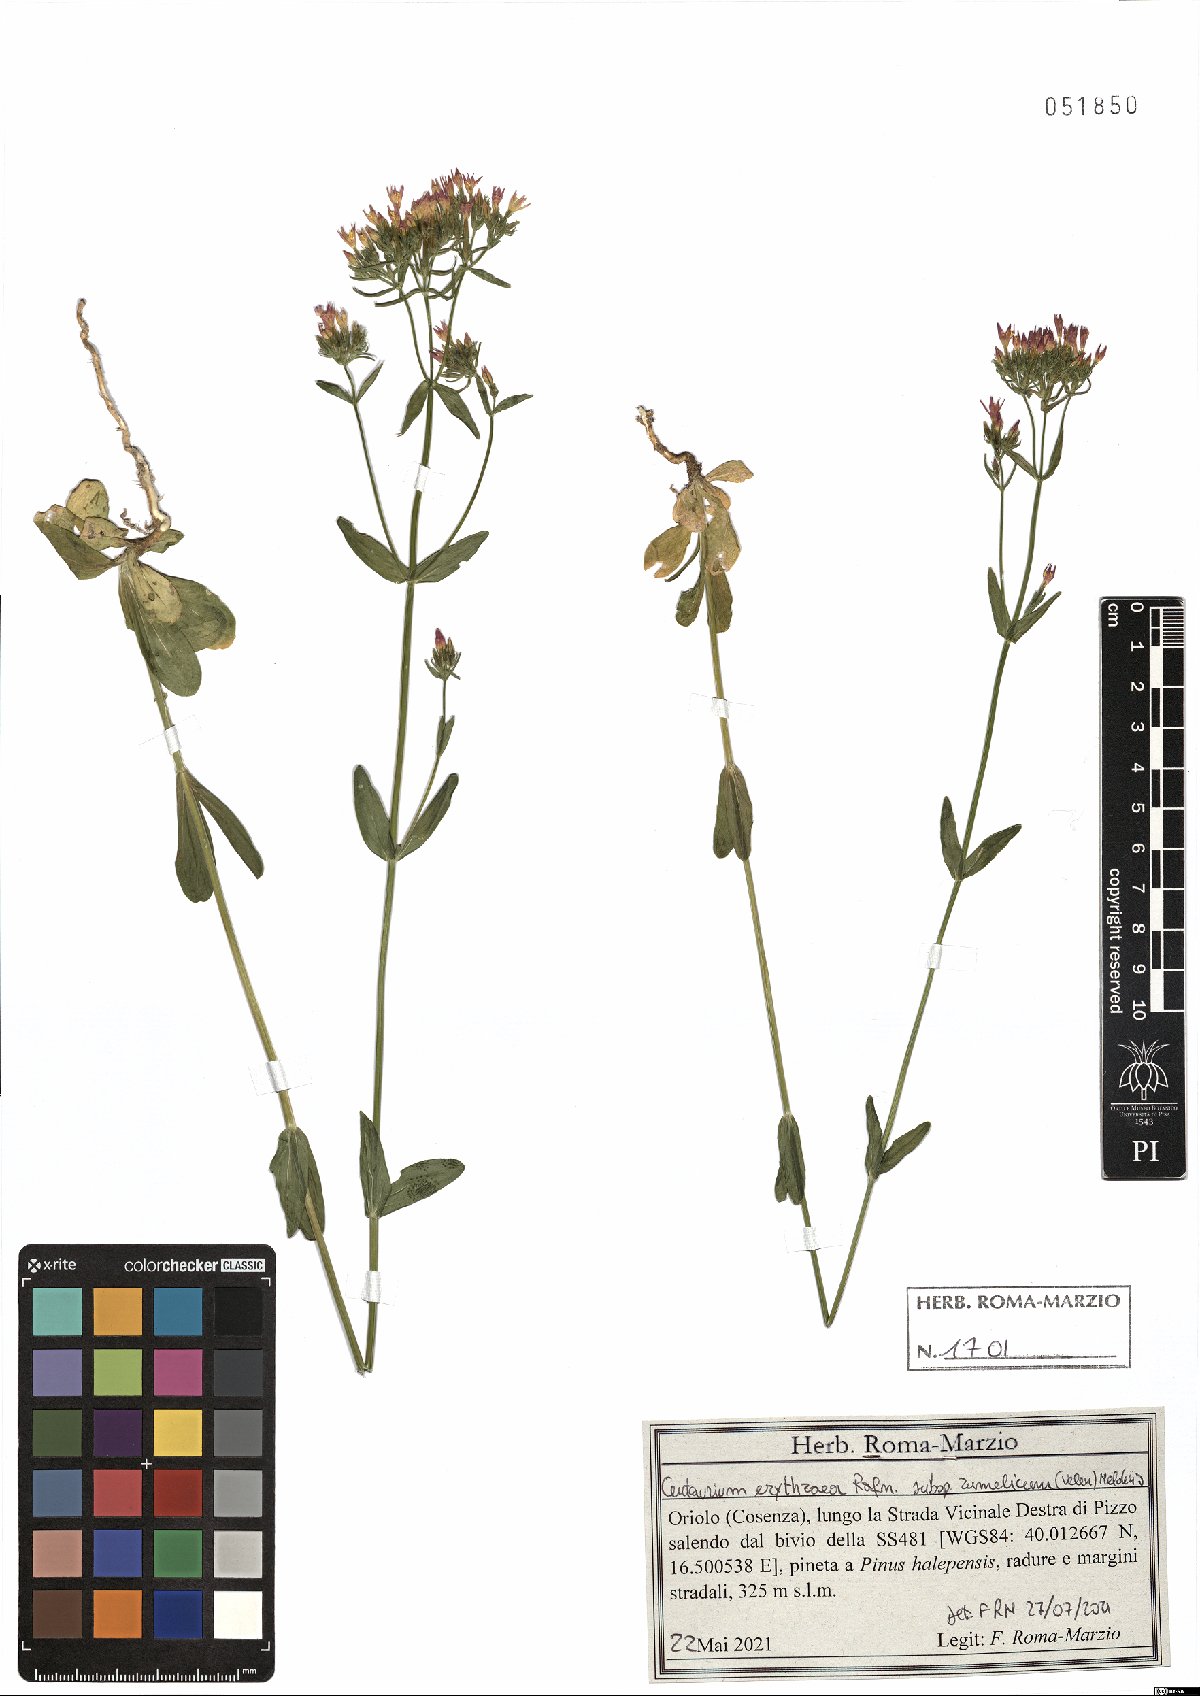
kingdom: Plantae
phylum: Tracheophyta
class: Magnoliopsida
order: Gentianales
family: Gentianaceae
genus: Centaurium
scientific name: Centaurium erythraea
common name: Common centaury
